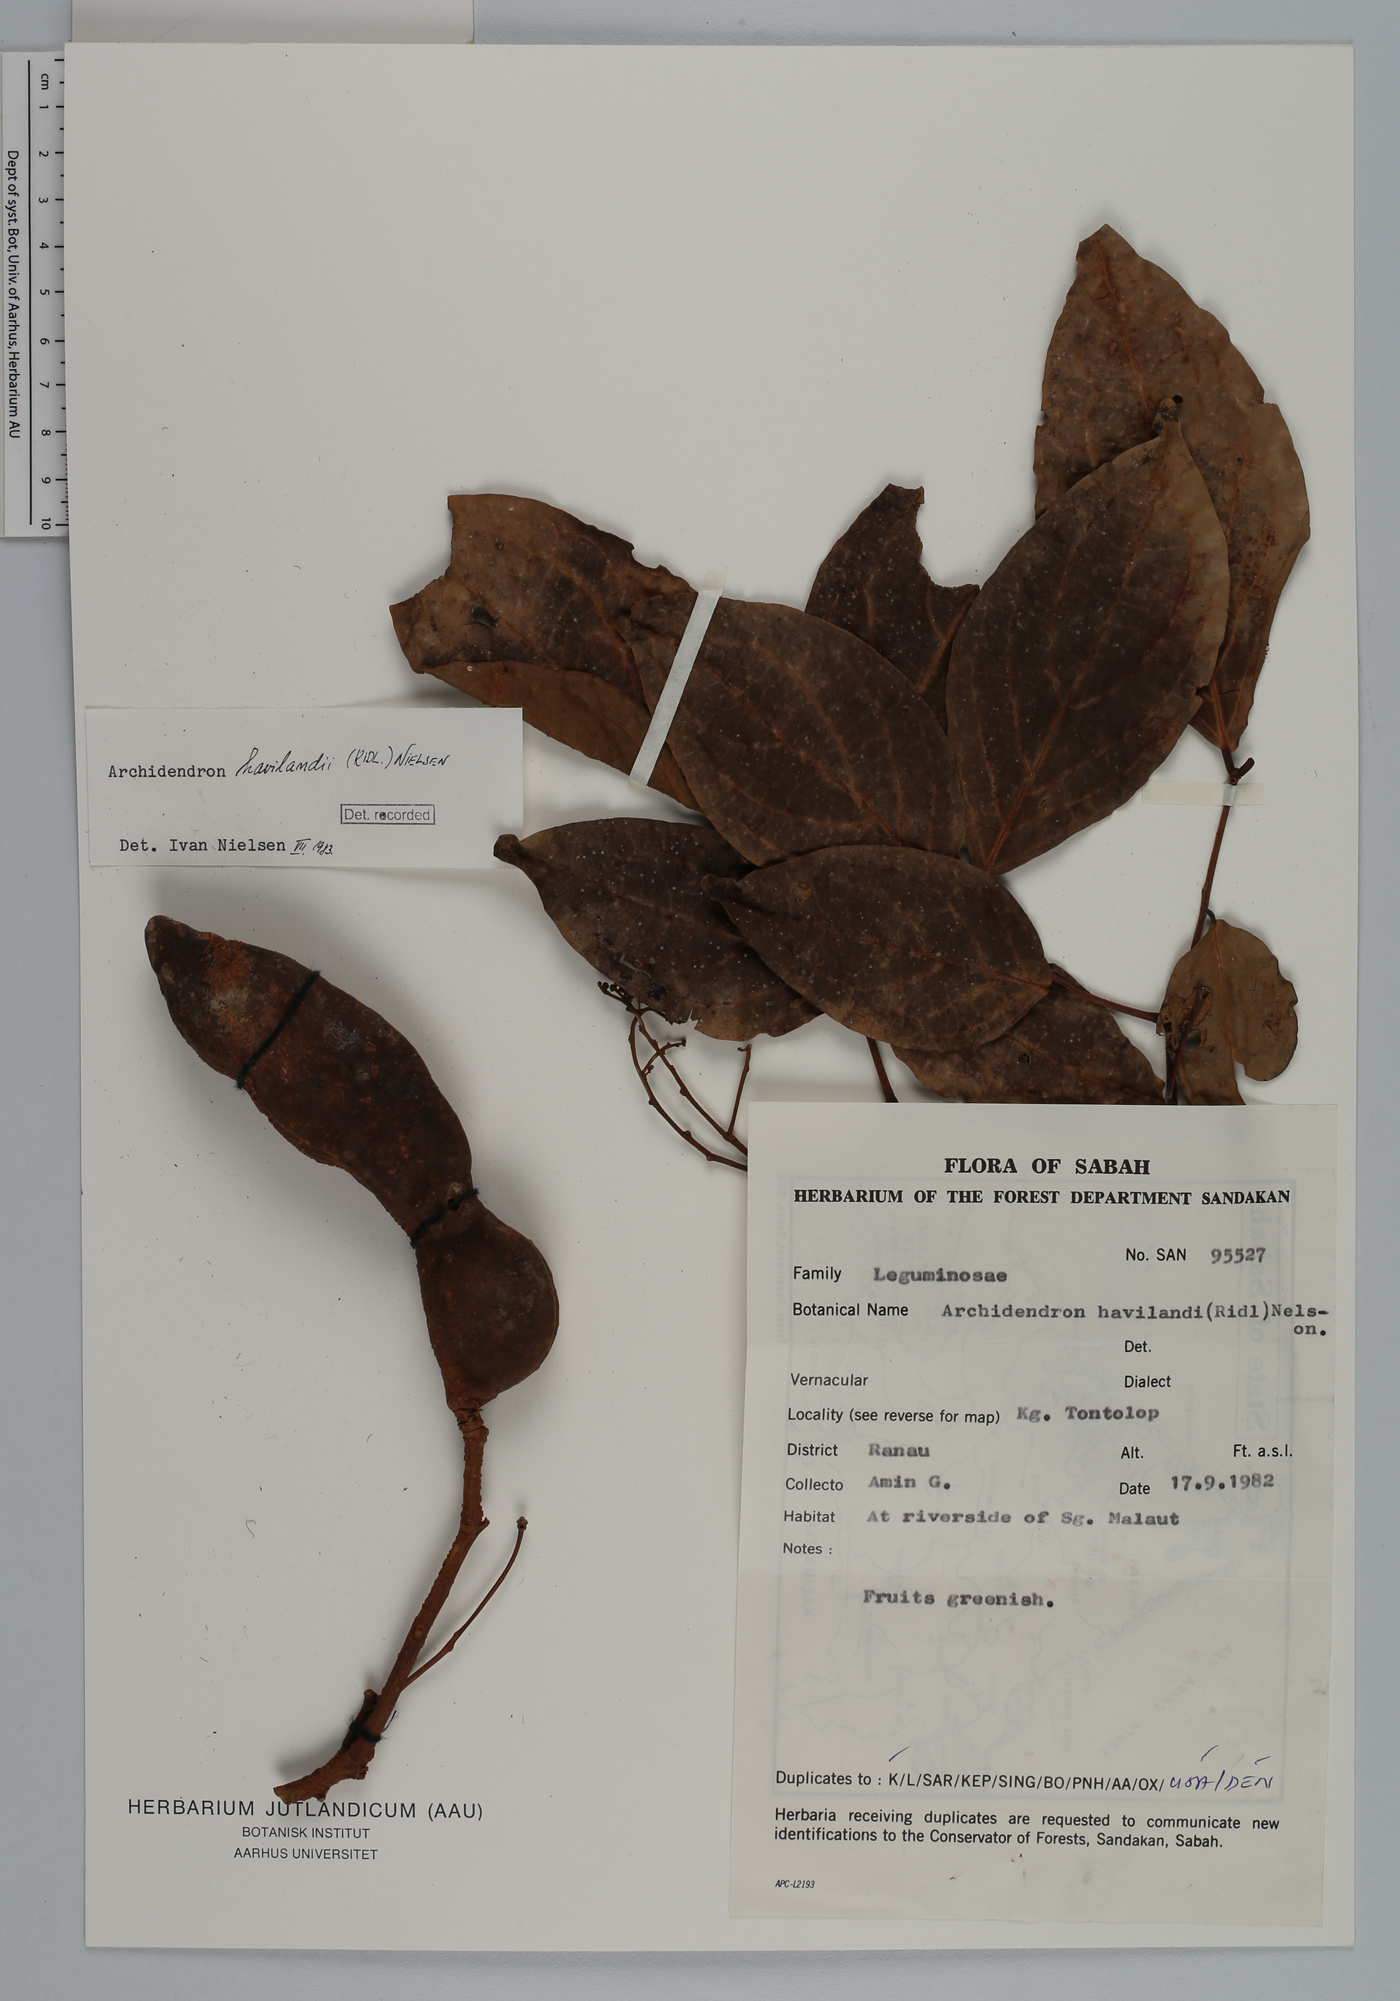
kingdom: Plantae
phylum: Tracheophyta
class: Magnoliopsida
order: Fabales
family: Fabaceae
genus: Archidendron
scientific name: Archidendron havilandii
